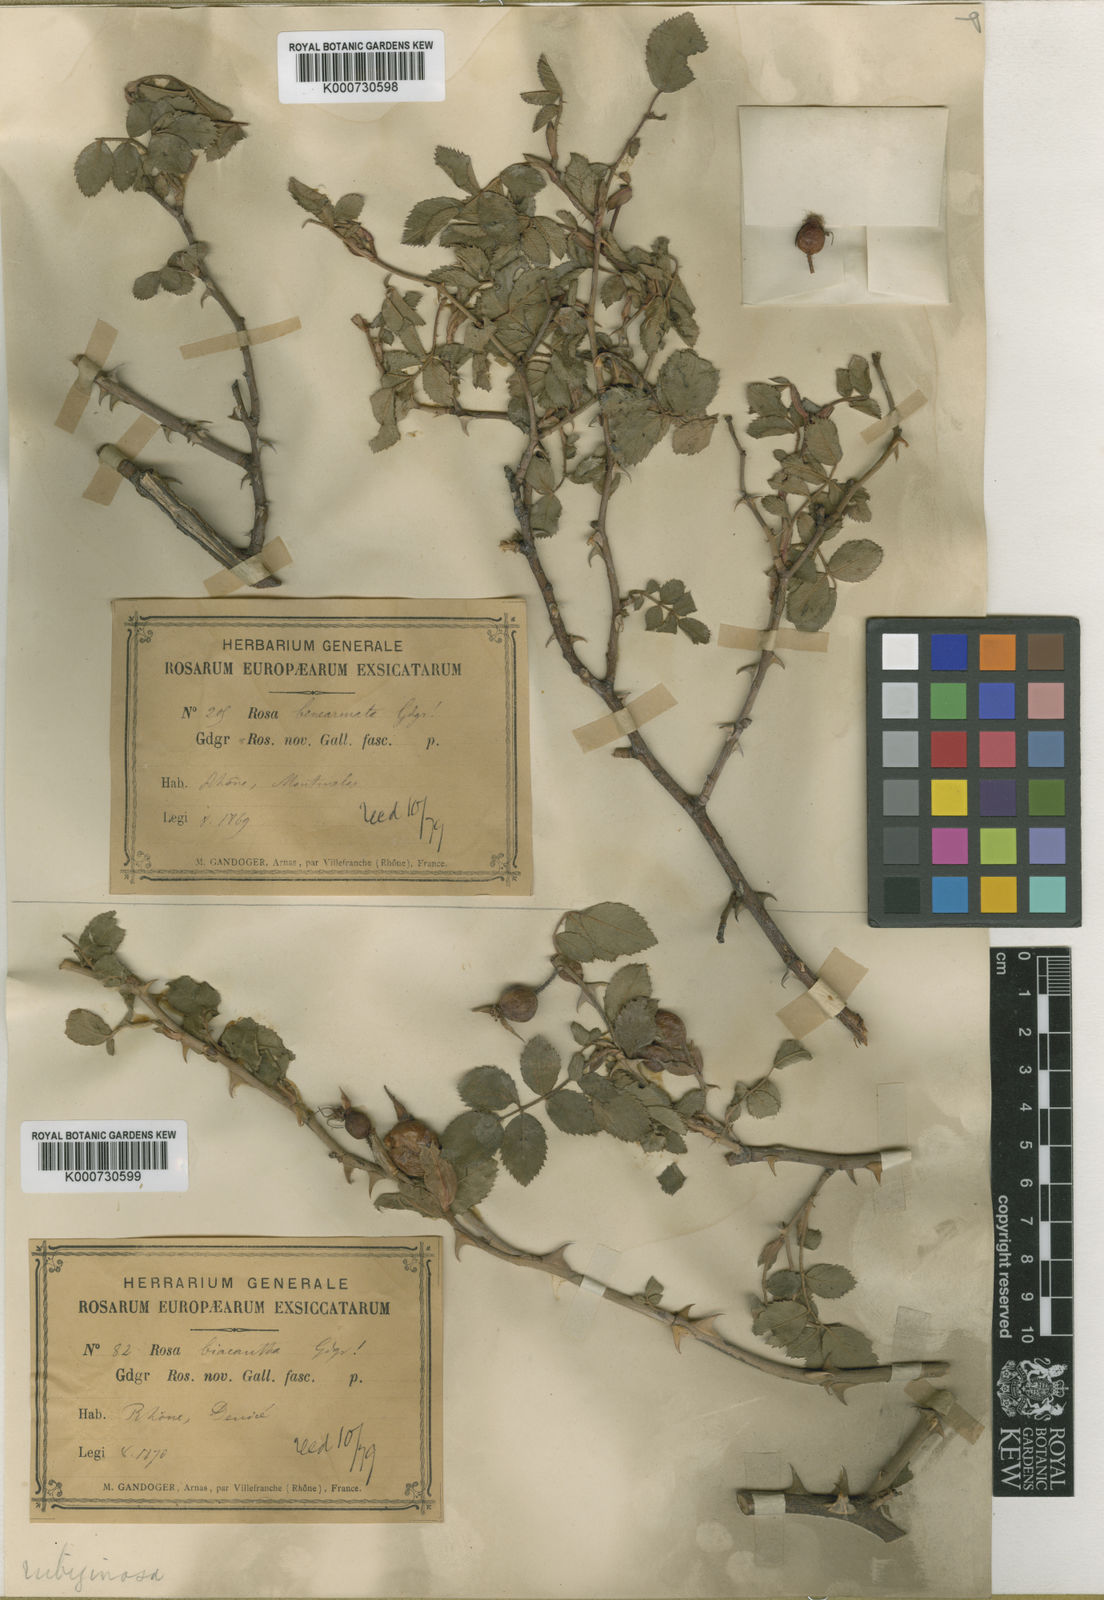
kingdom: Plantae
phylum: Tracheophyta
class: Magnoliopsida
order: Rosales
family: Rosaceae
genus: Rosa
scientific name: Rosa rubiginosa
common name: Sweet-briar
